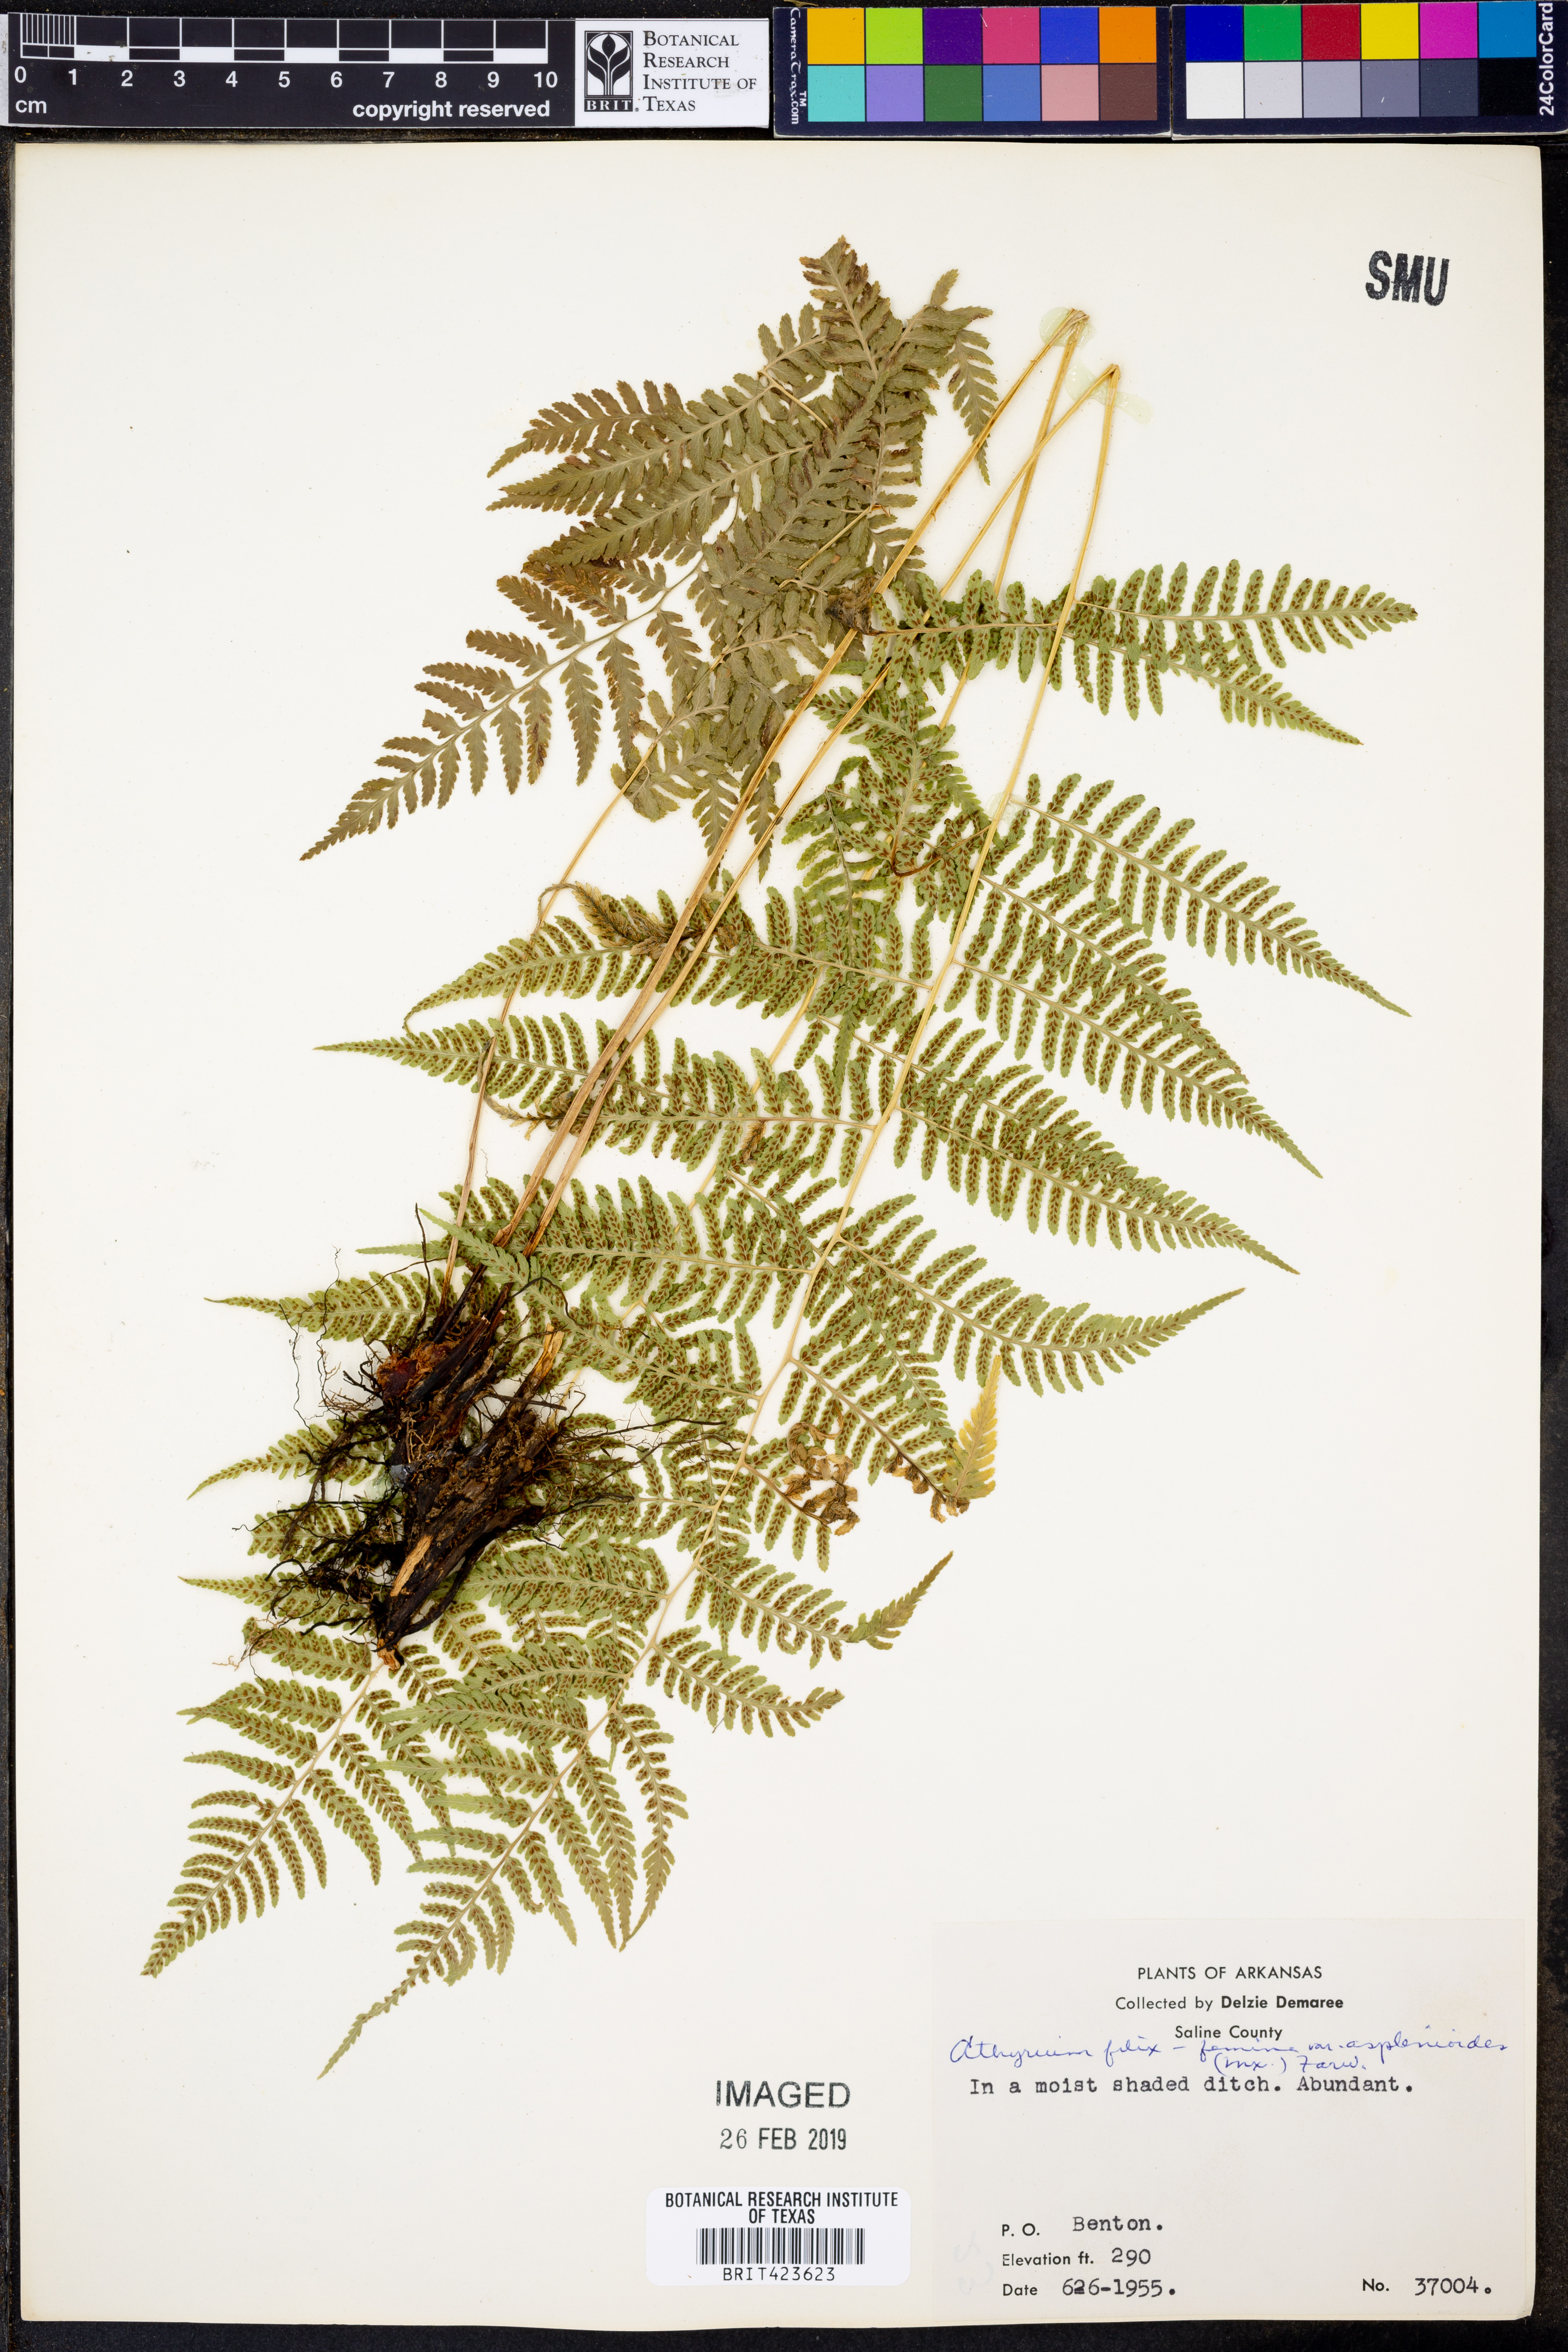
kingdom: Plantae
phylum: Tracheophyta
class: Polypodiopsida
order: Polypodiales
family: Athyriaceae
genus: Athyrium
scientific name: Athyrium asplenioides
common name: Southern lady fern
